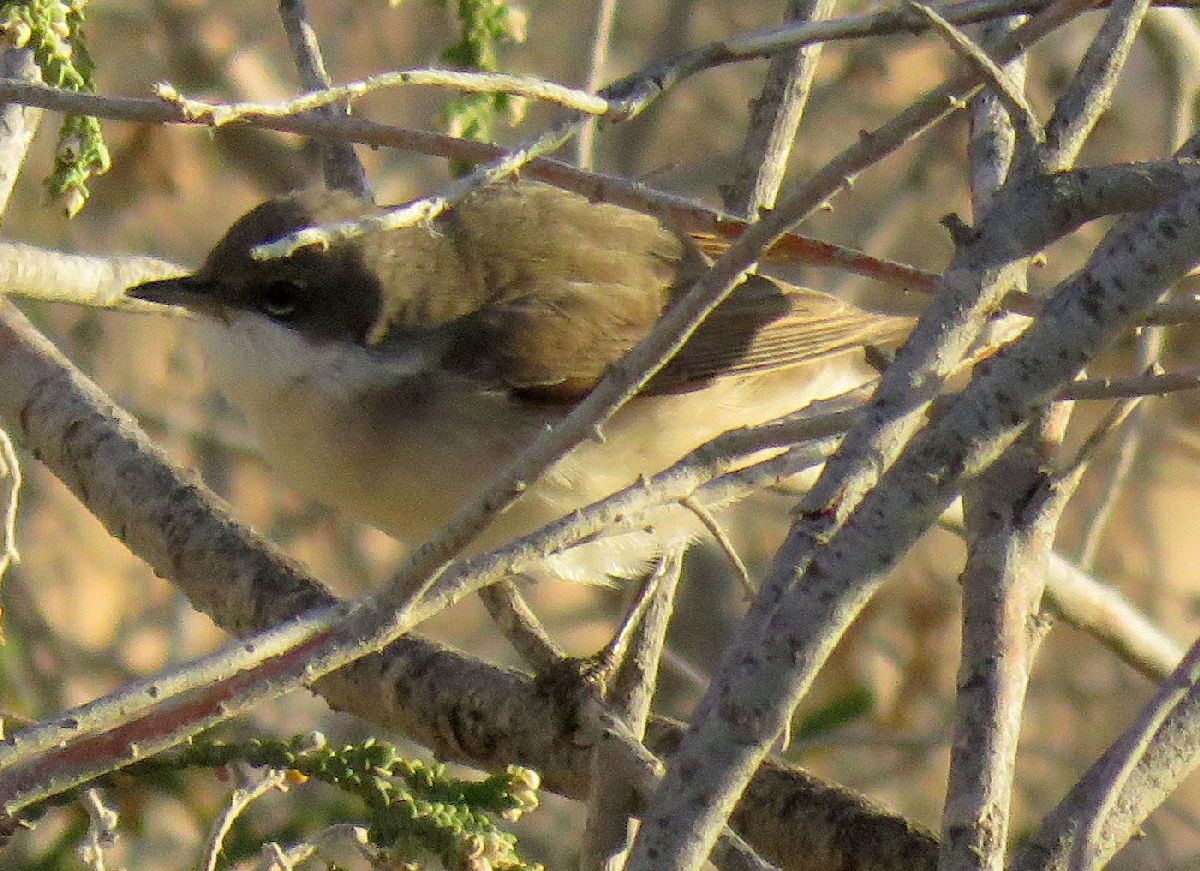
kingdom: Animalia
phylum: Chordata
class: Aves
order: Passeriformes
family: Sylviidae
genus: Sylvia
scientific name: Sylvia curruca
